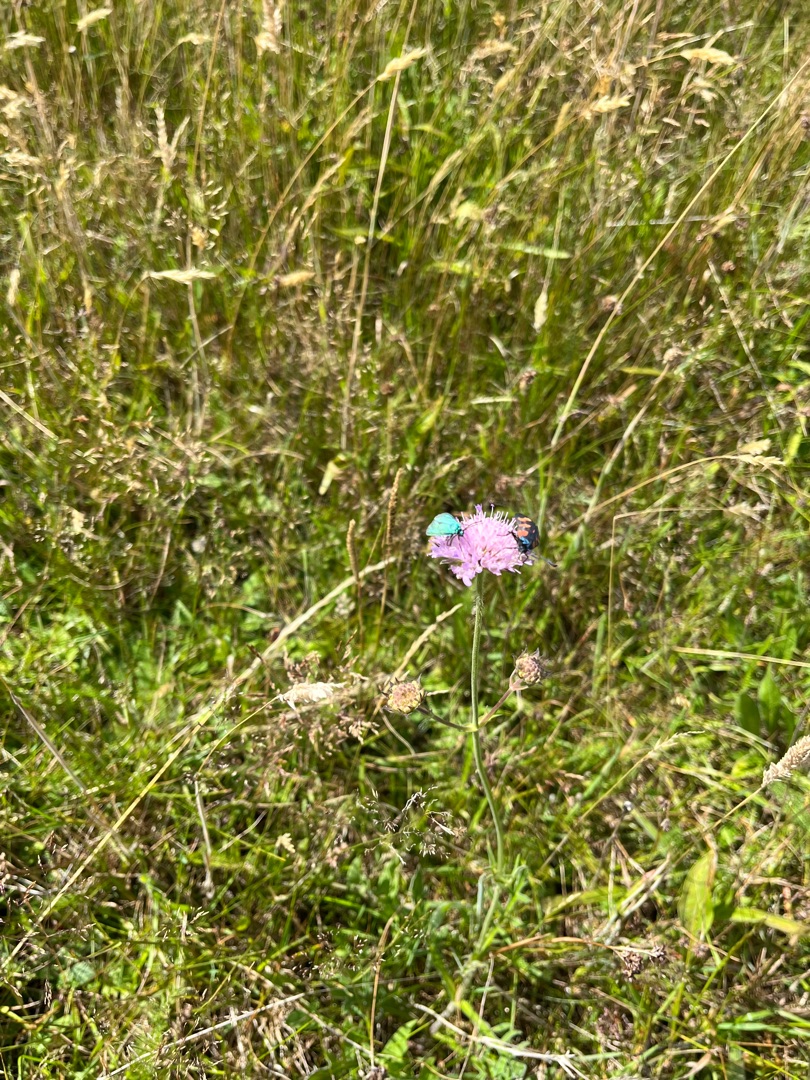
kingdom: Plantae
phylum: Tracheophyta
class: Magnoliopsida
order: Dipsacales
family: Caprifoliaceae
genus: Knautia
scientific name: Knautia arvensis
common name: Blåhat
